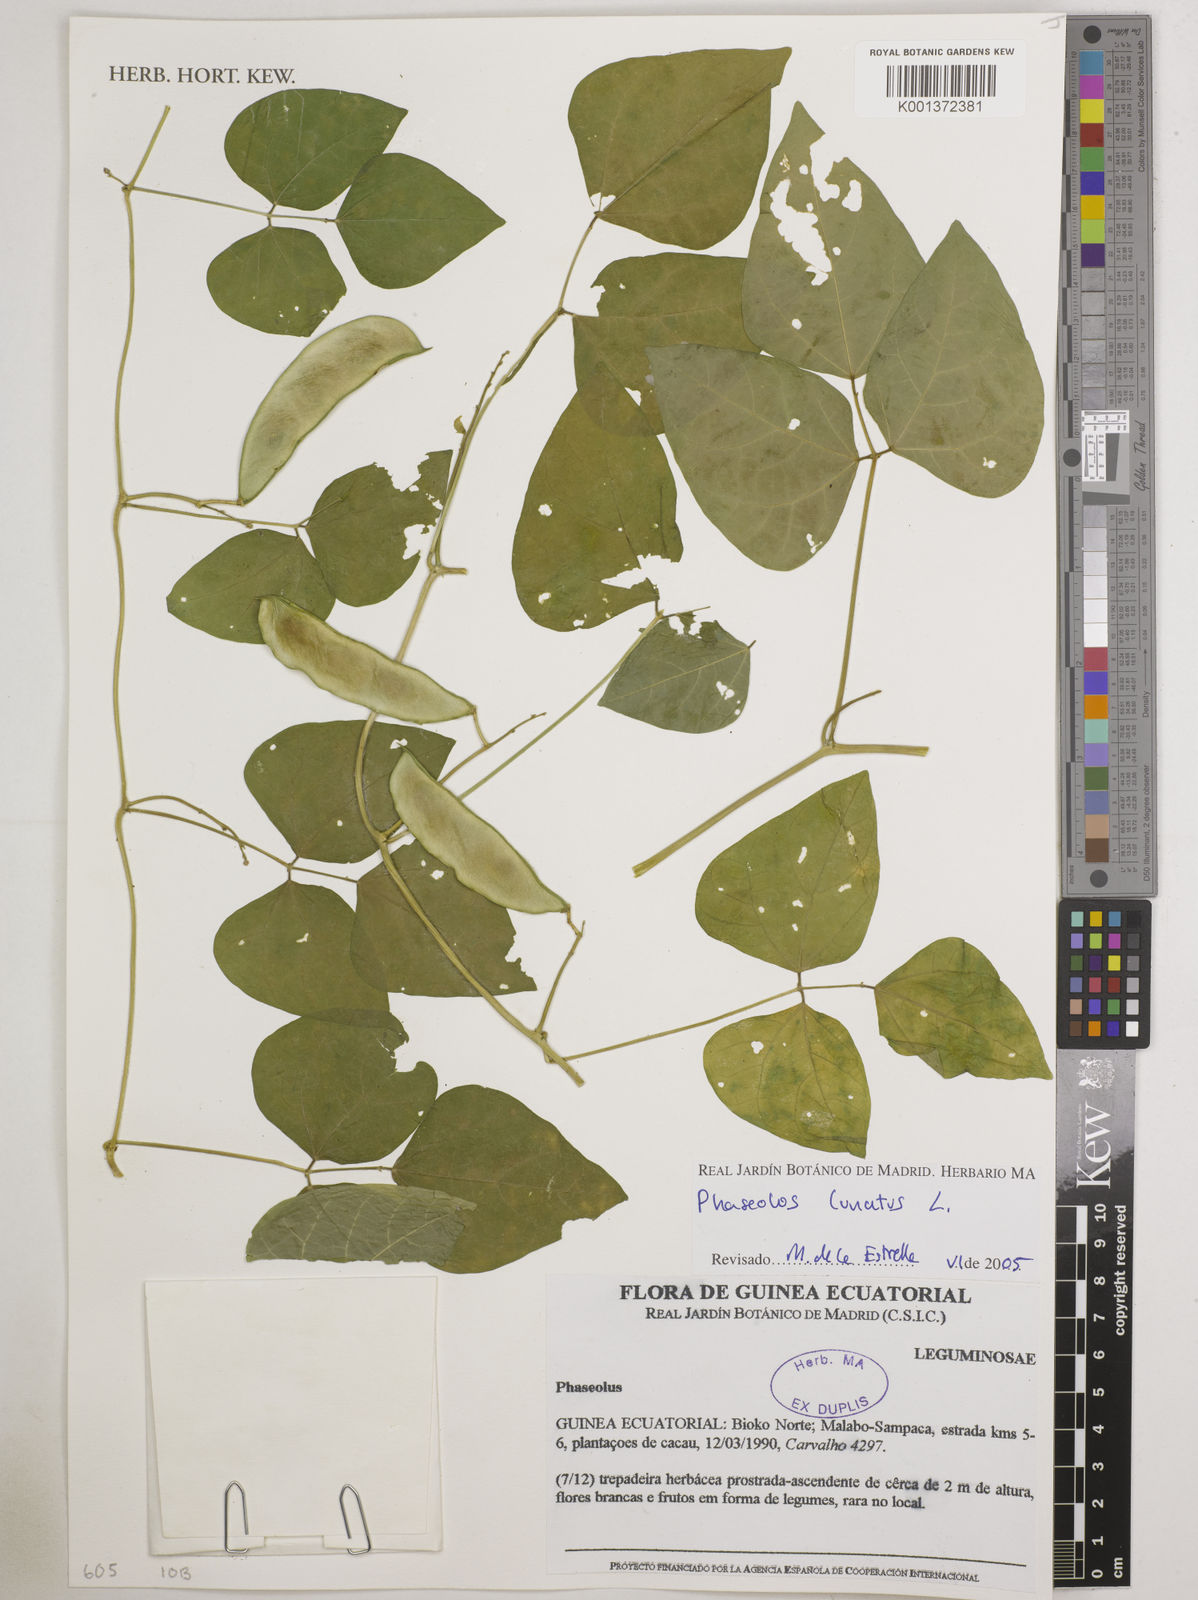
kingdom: Plantae
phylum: Tracheophyta
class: Magnoliopsida
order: Fabales
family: Fabaceae
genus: Phaseolus
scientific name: Phaseolus lunatus
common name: Sieva bean
